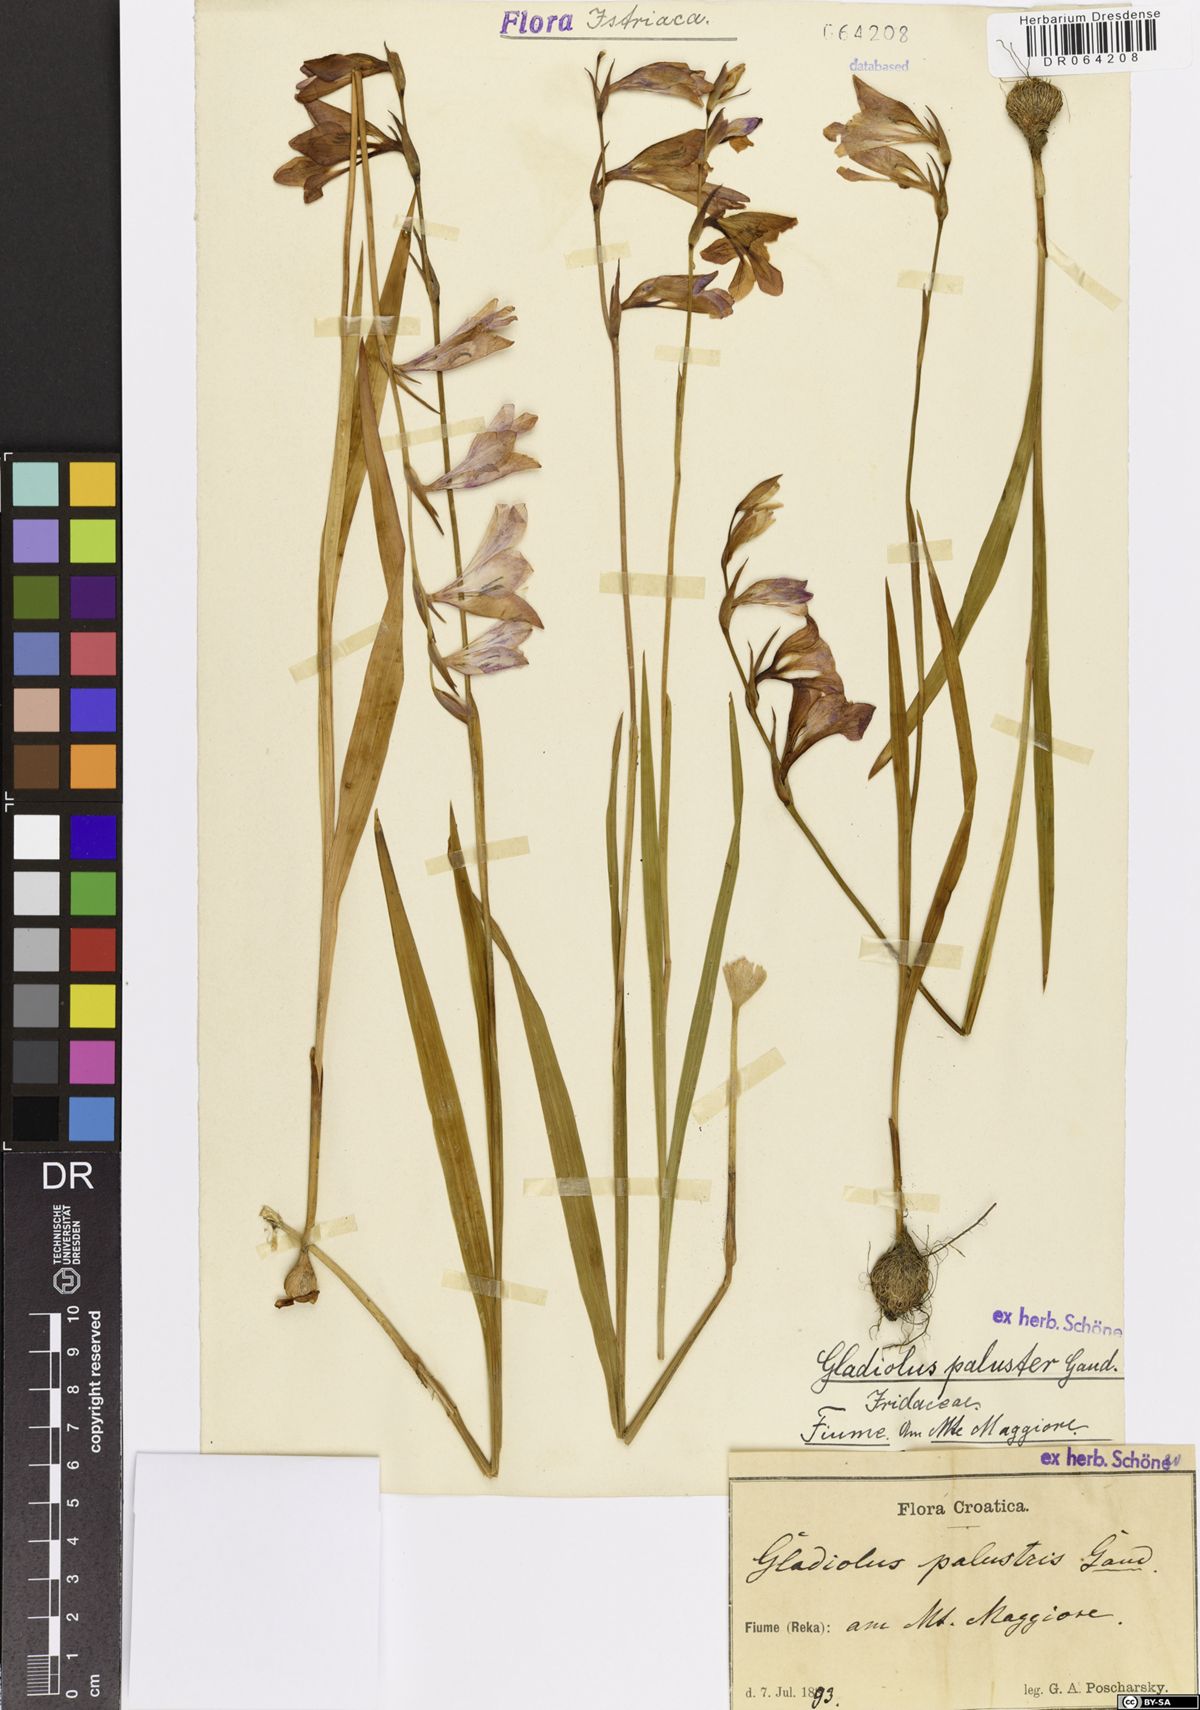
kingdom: Plantae
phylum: Tracheophyta
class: Liliopsida
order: Asparagales
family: Iridaceae
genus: Gladiolus
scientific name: Gladiolus palustris
